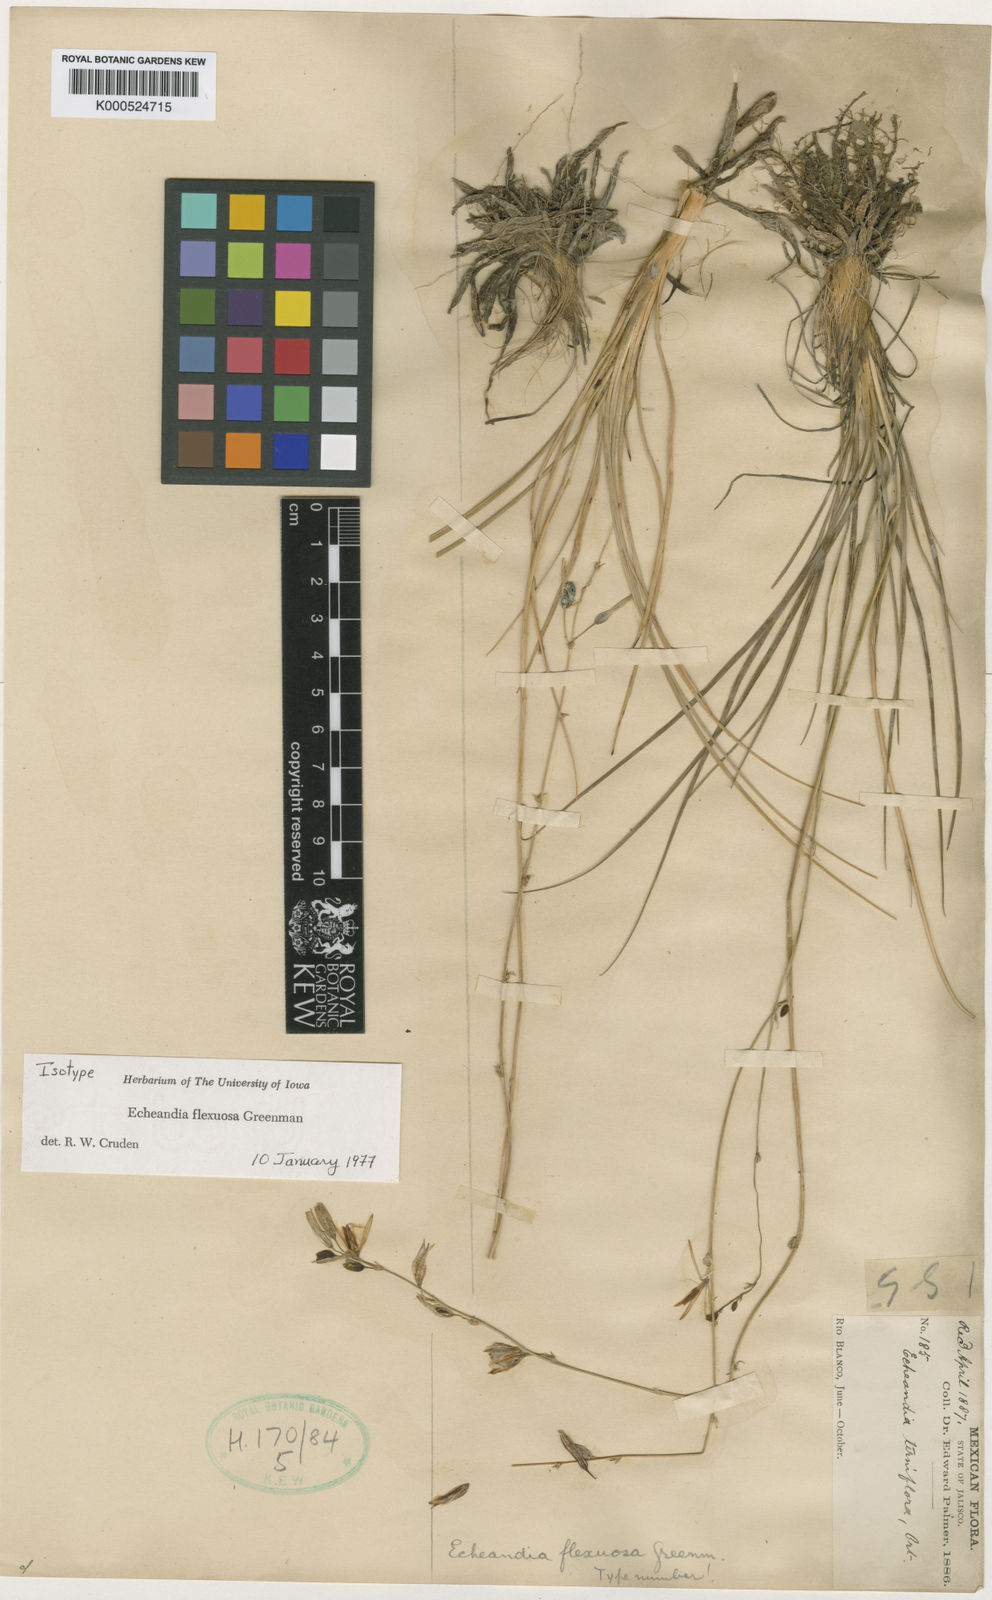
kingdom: Plantae
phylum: Tracheophyta
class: Liliopsida
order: Asparagales
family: Asparagaceae
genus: Echeandia
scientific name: Echeandia flexuosa
